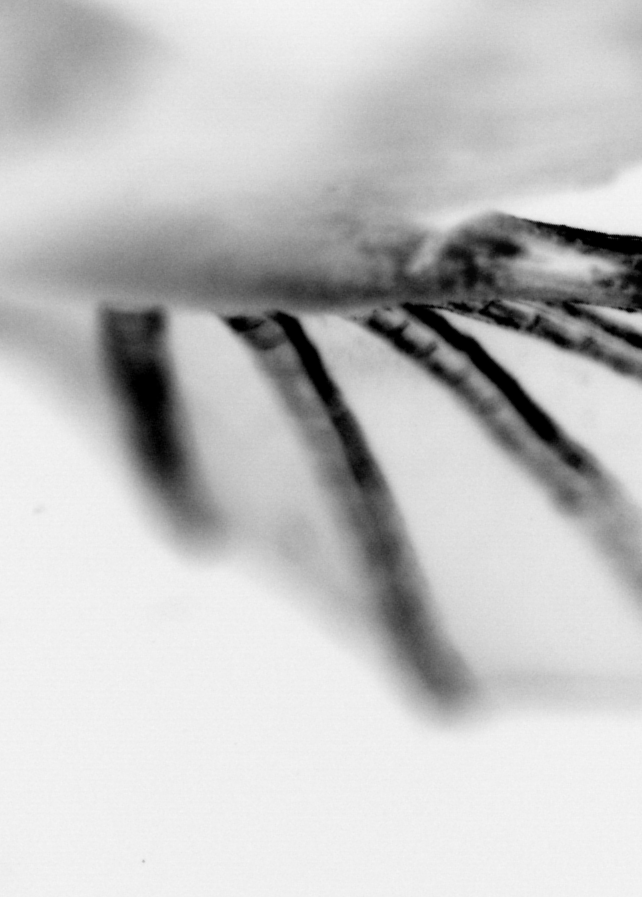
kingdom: Animalia
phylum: Chordata
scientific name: Chordata
